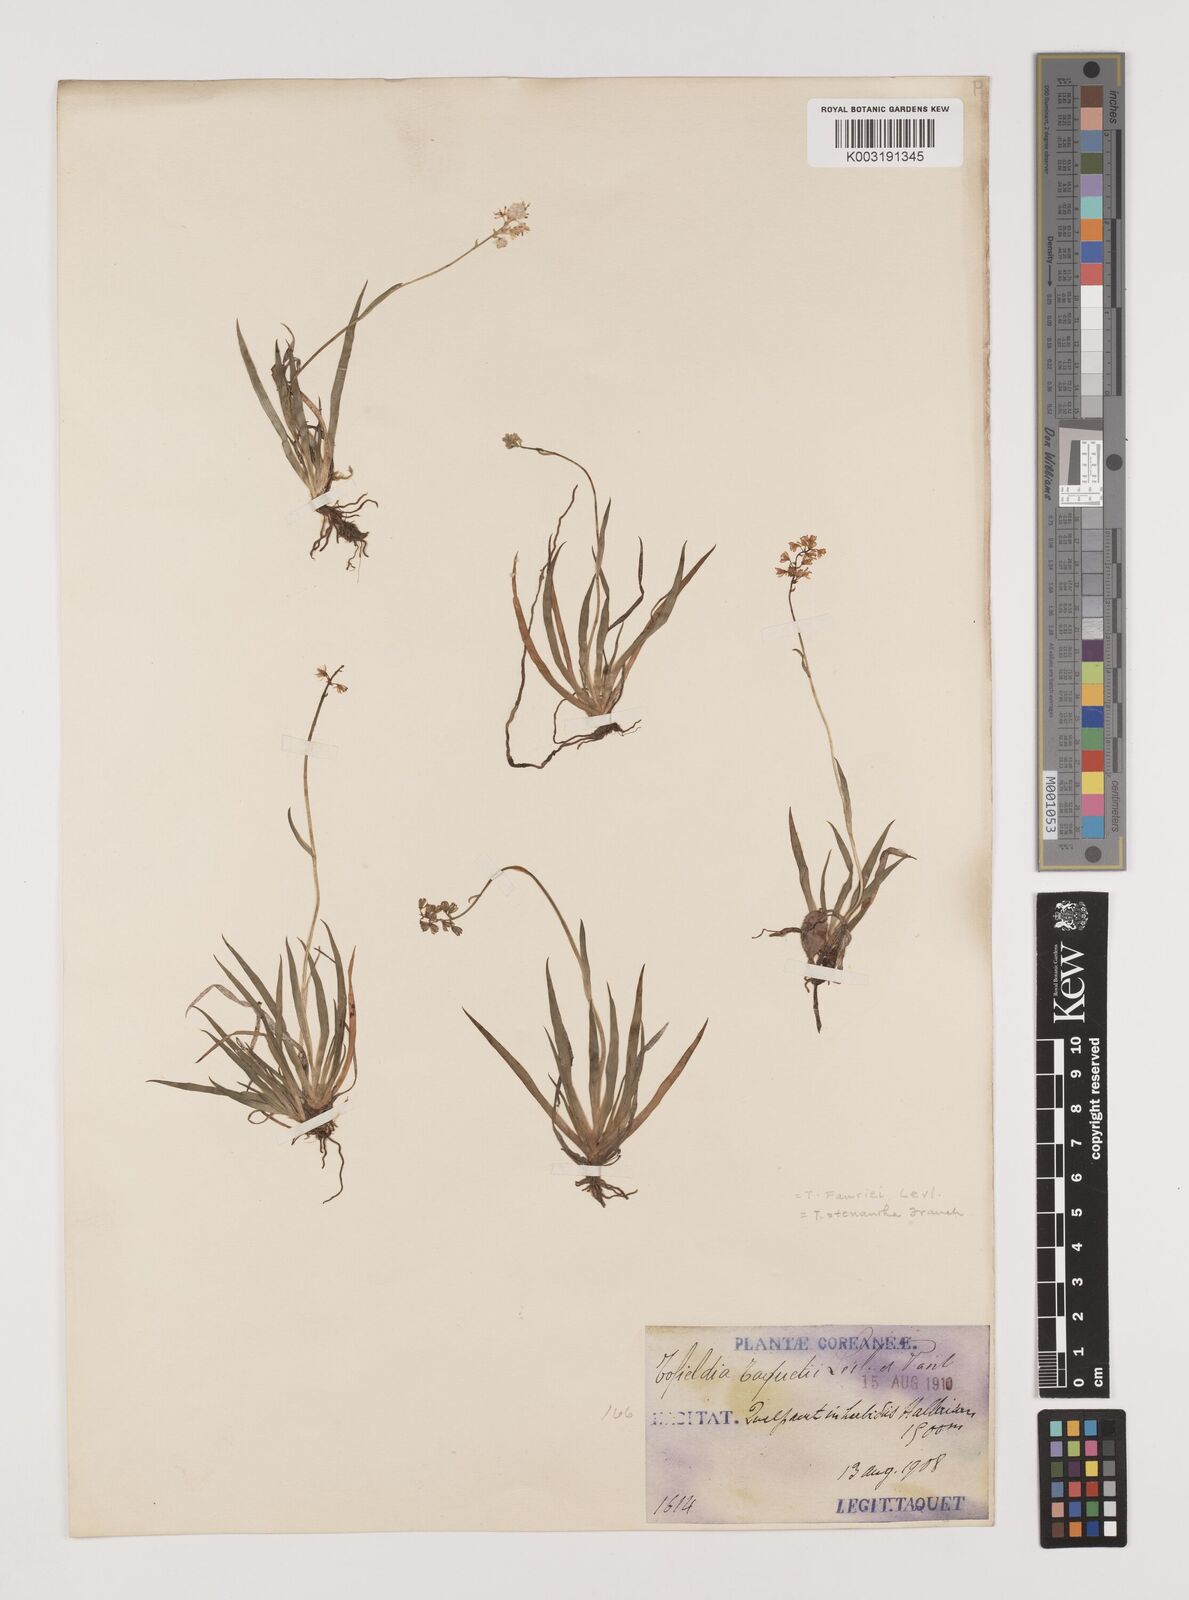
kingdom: Plantae
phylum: Tracheophyta
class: Liliopsida
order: Alismatales
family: Tofieldiaceae
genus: Tofieldia
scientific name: Tofieldia coccinea
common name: Northern false asphodel
